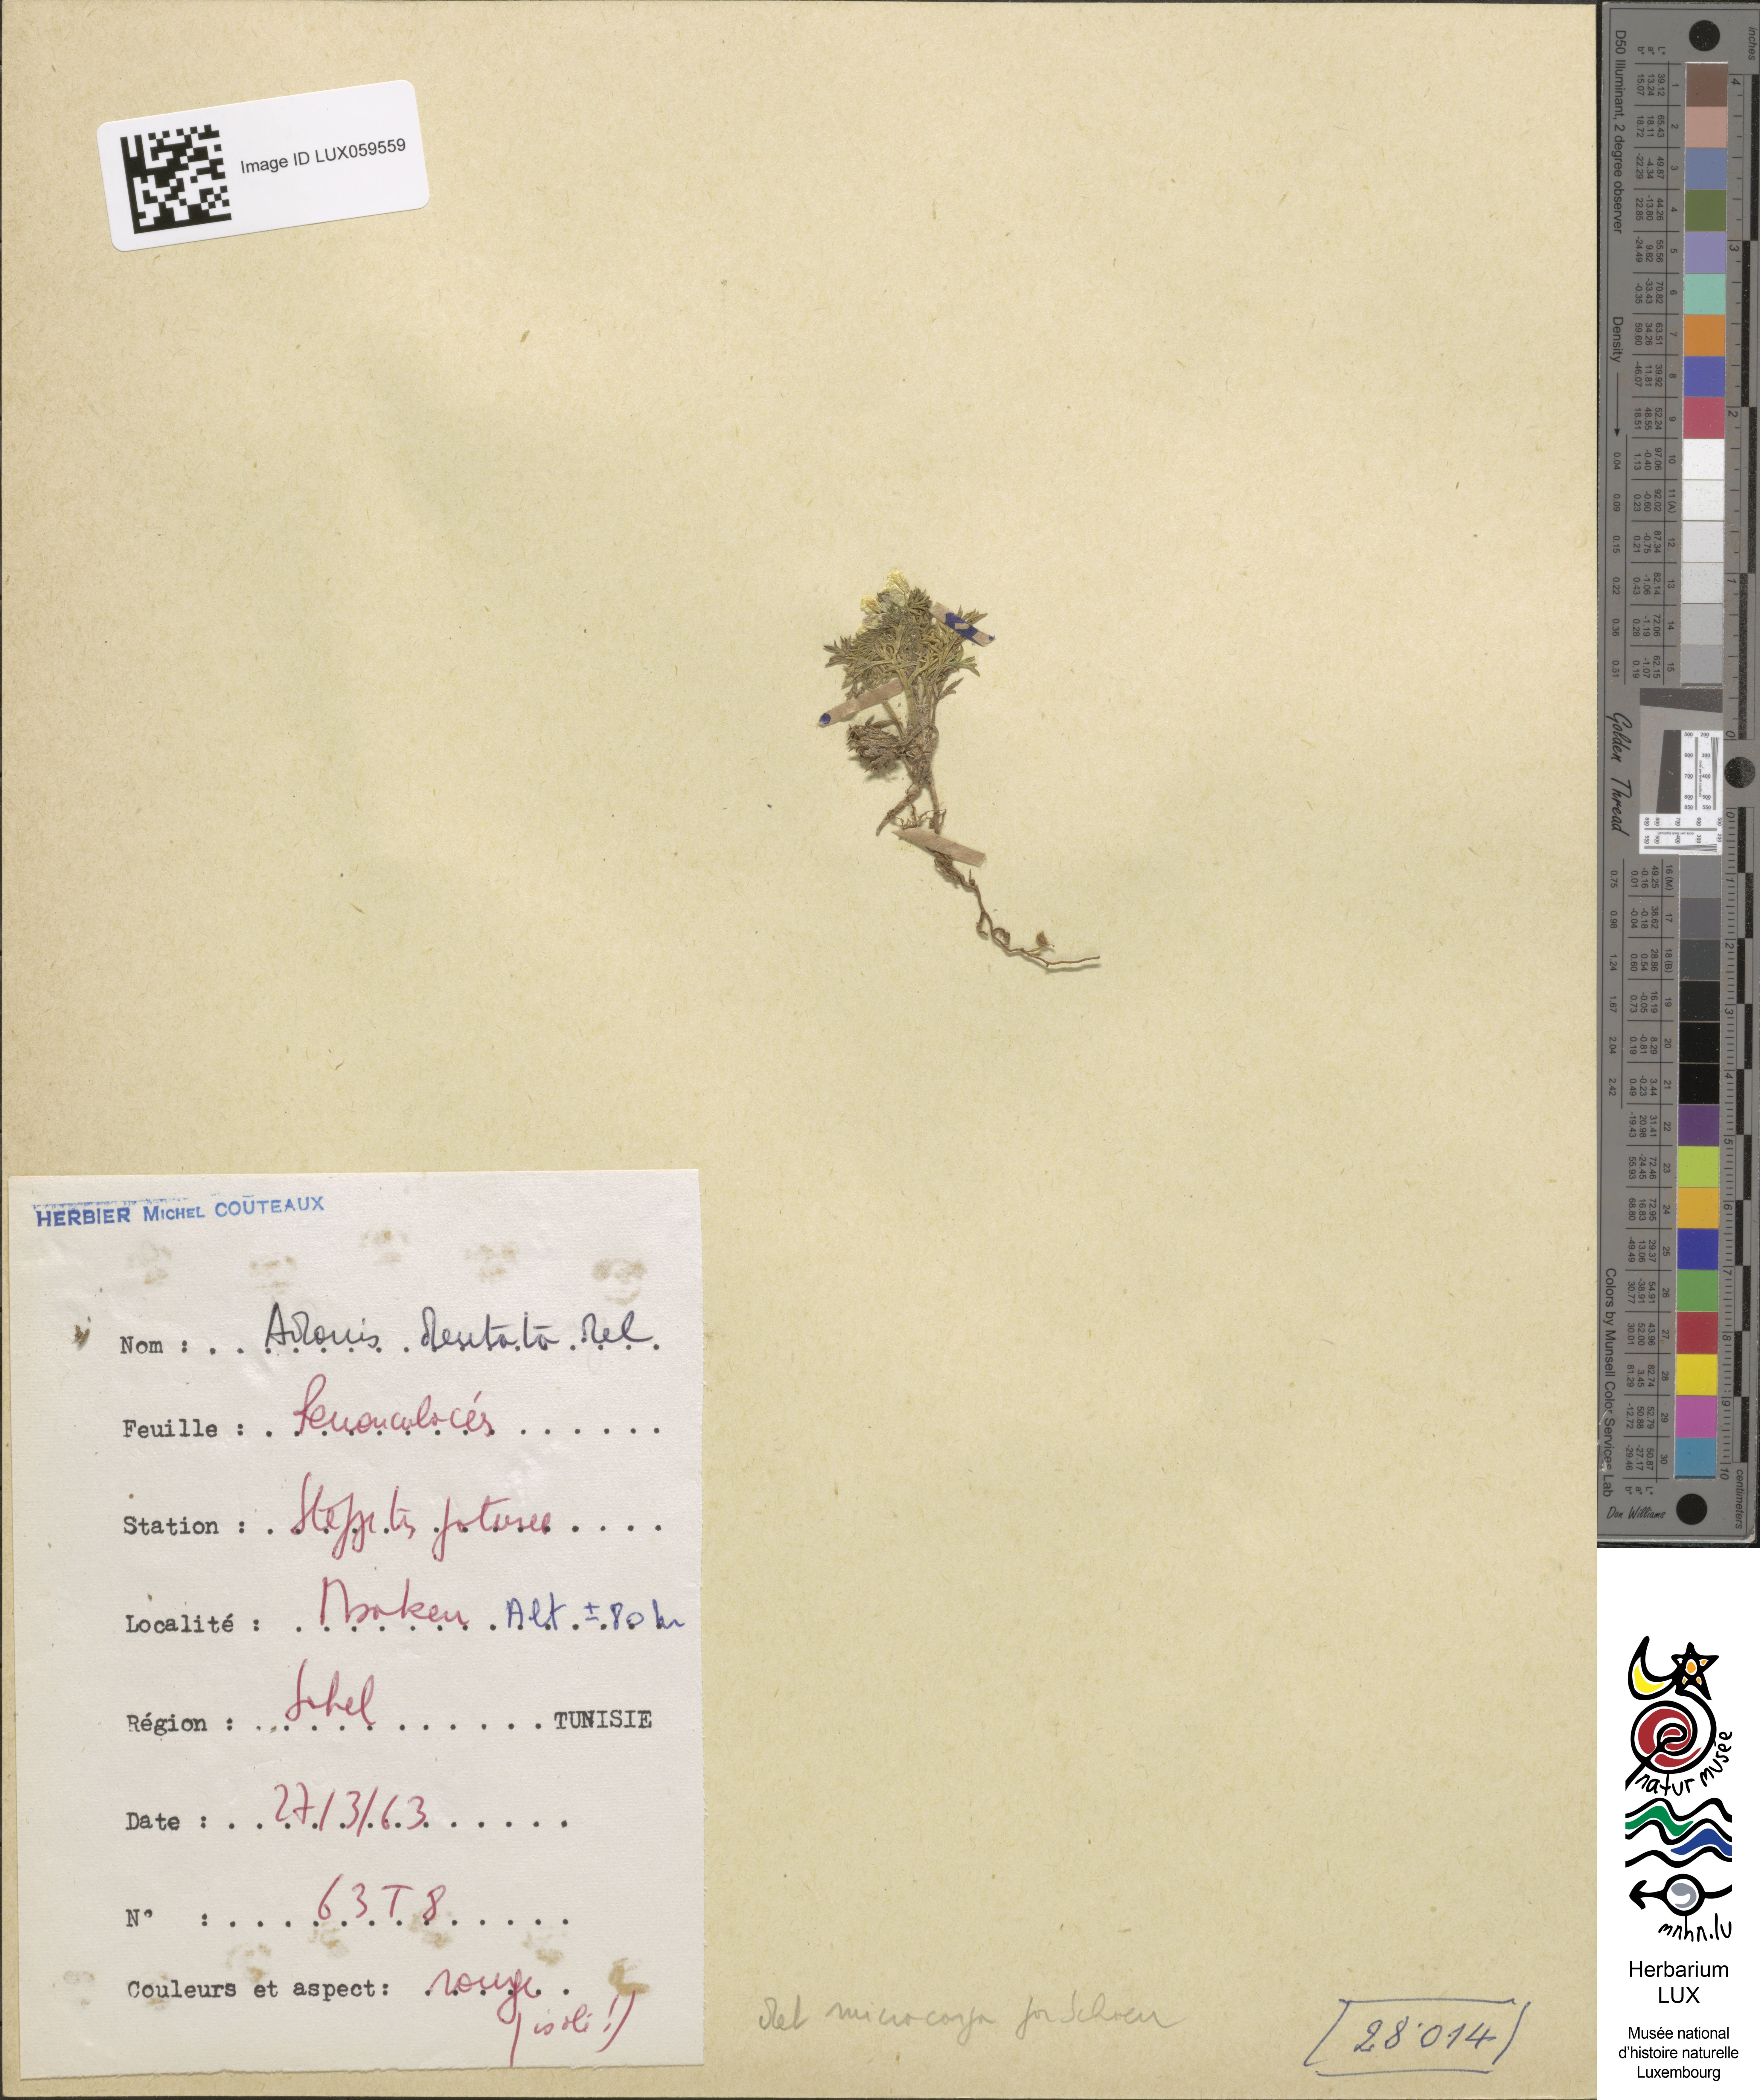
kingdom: Plantae
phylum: Tracheophyta
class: Magnoliopsida
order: Ranunculales
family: Ranunculaceae
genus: Adonis
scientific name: Adonis dentata
